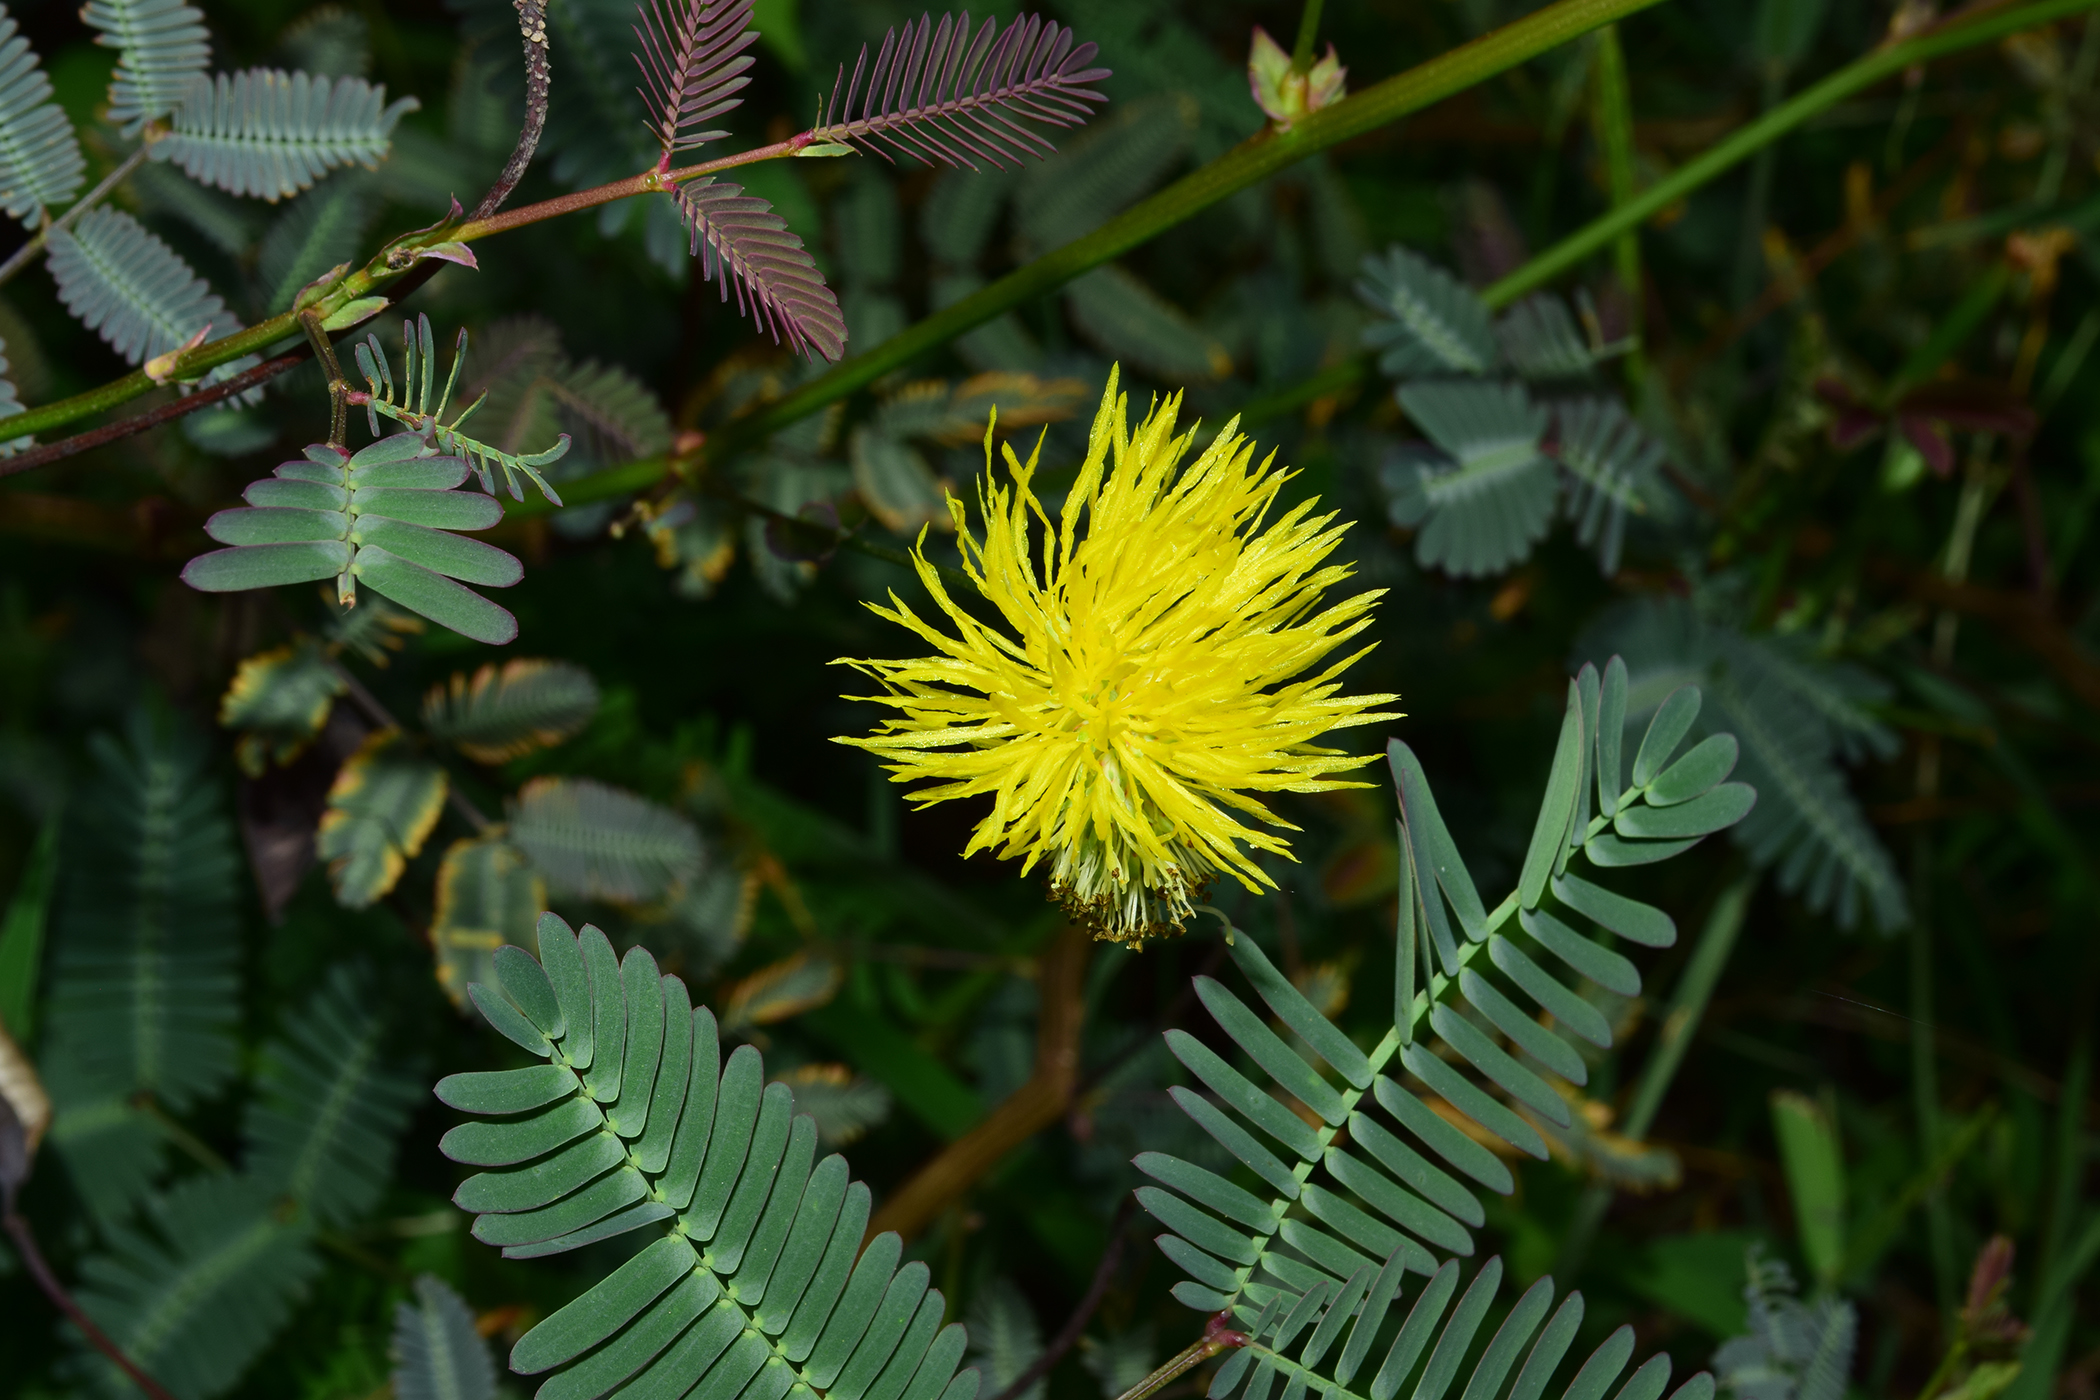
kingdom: Plantae
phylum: Tracheophyta
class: Magnoliopsida
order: Fabales
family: Fabaceae
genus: Neptunia
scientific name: Neptunia plena
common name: Dead and awake
